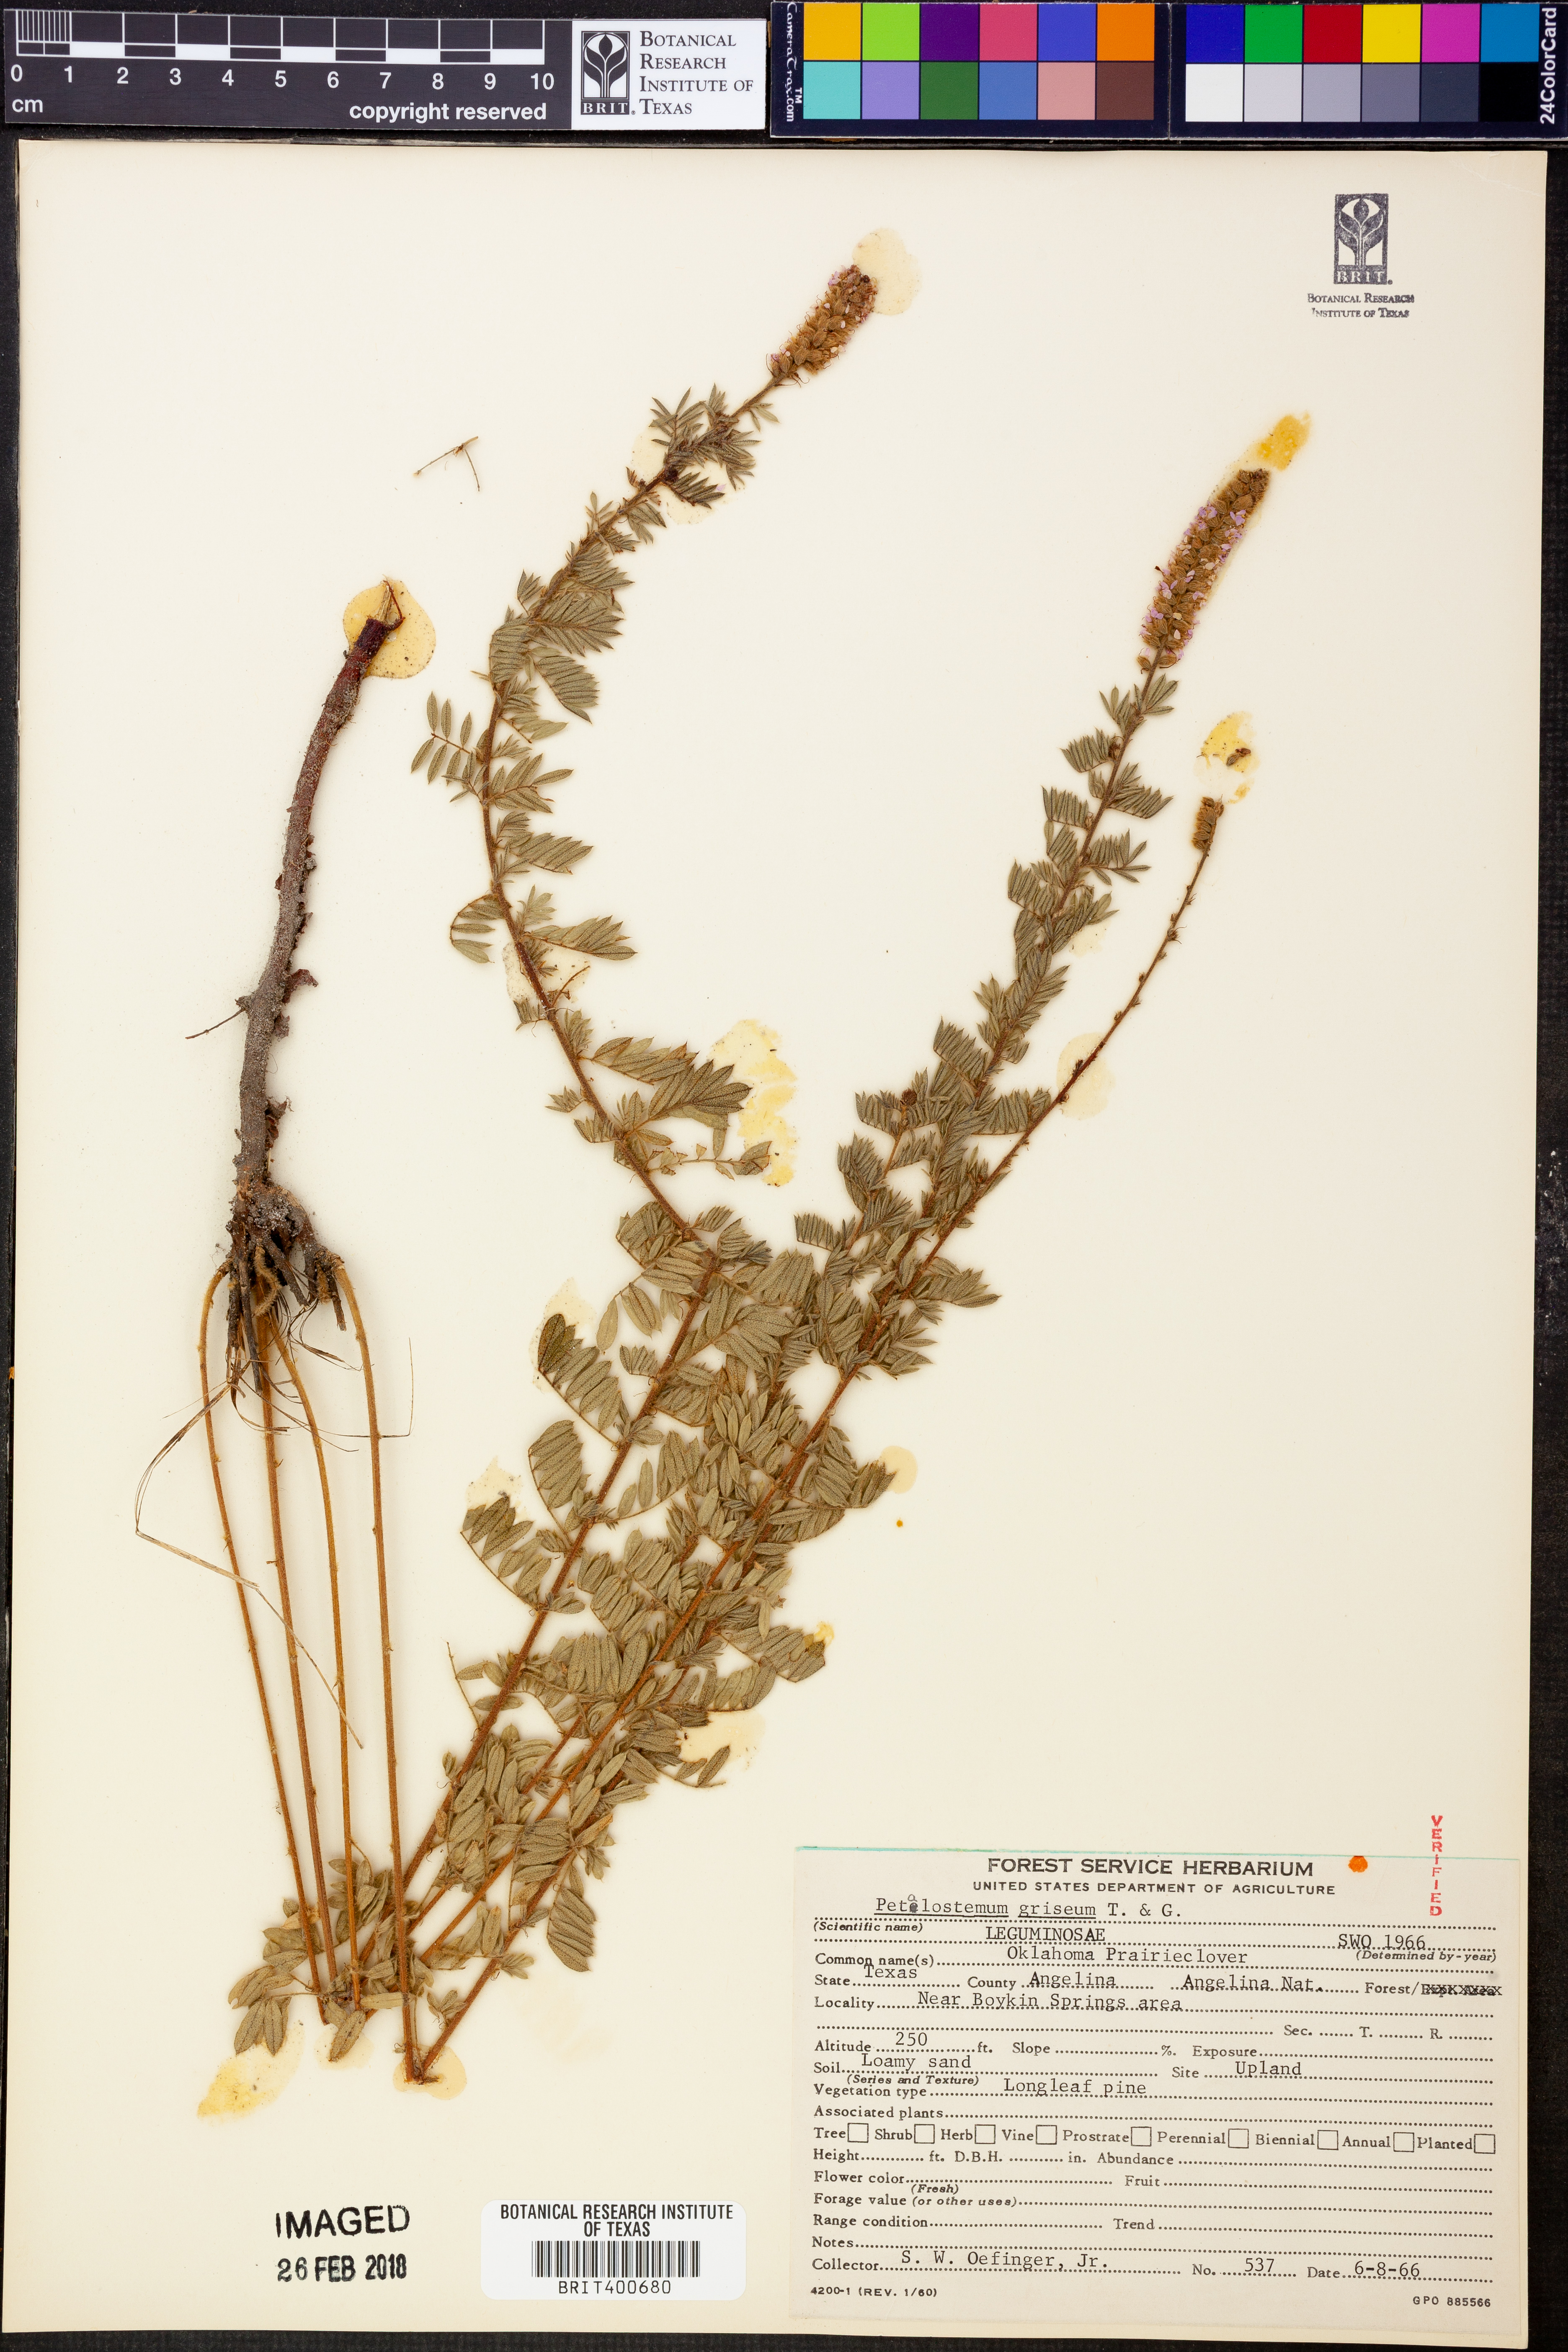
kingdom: Plantae
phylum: Tracheophyta
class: Magnoliopsida
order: Fabales
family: Fabaceae
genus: Dalea
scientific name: Dalea villosa
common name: Silky prairie-clover
